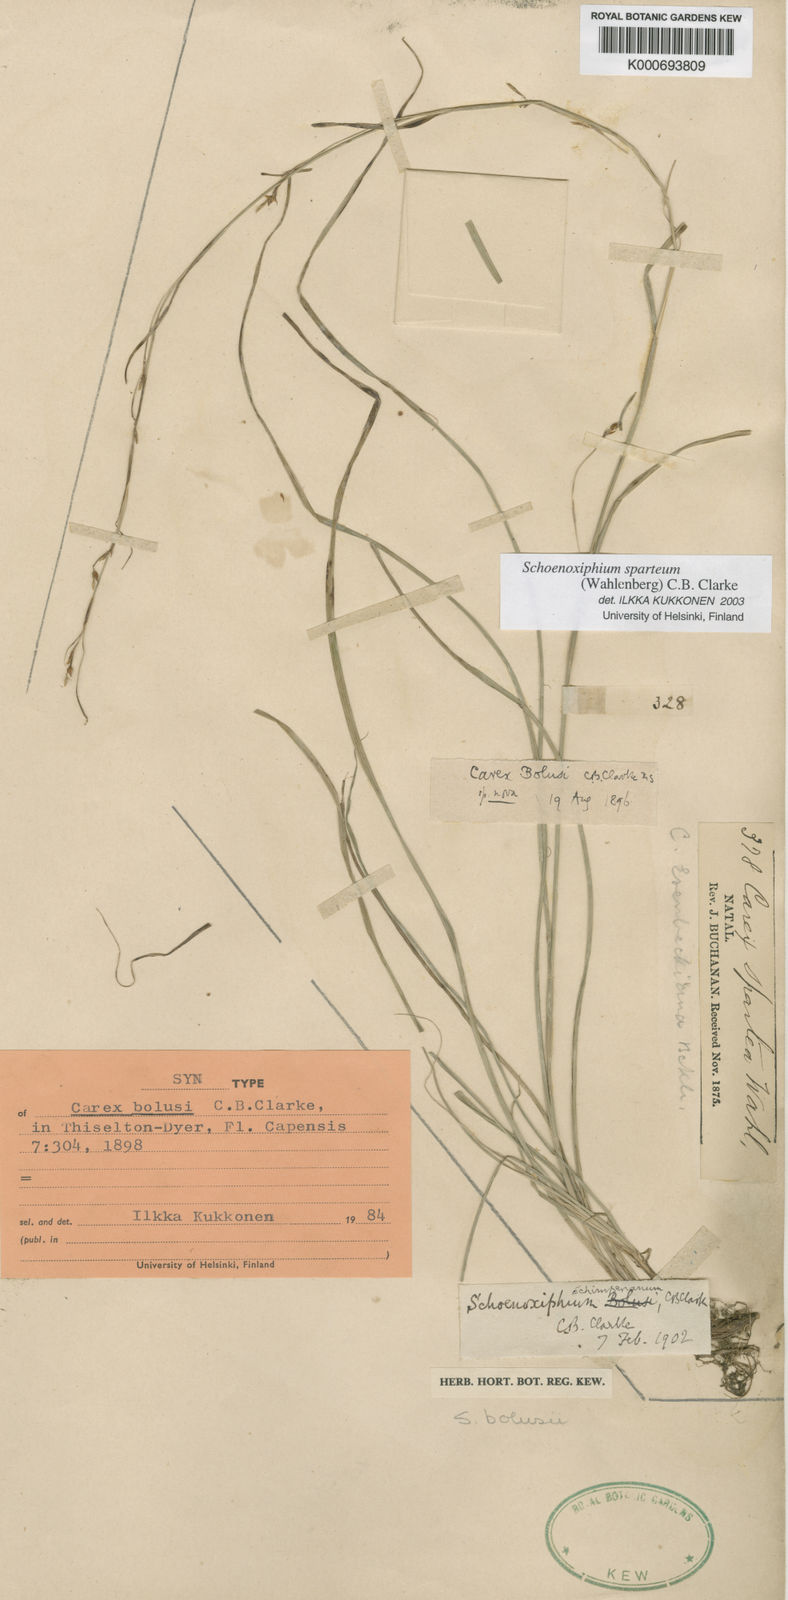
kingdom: Plantae
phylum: Tracheophyta
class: Liliopsida
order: Poales
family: Cyperaceae
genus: Carex
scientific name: Carex spartea
